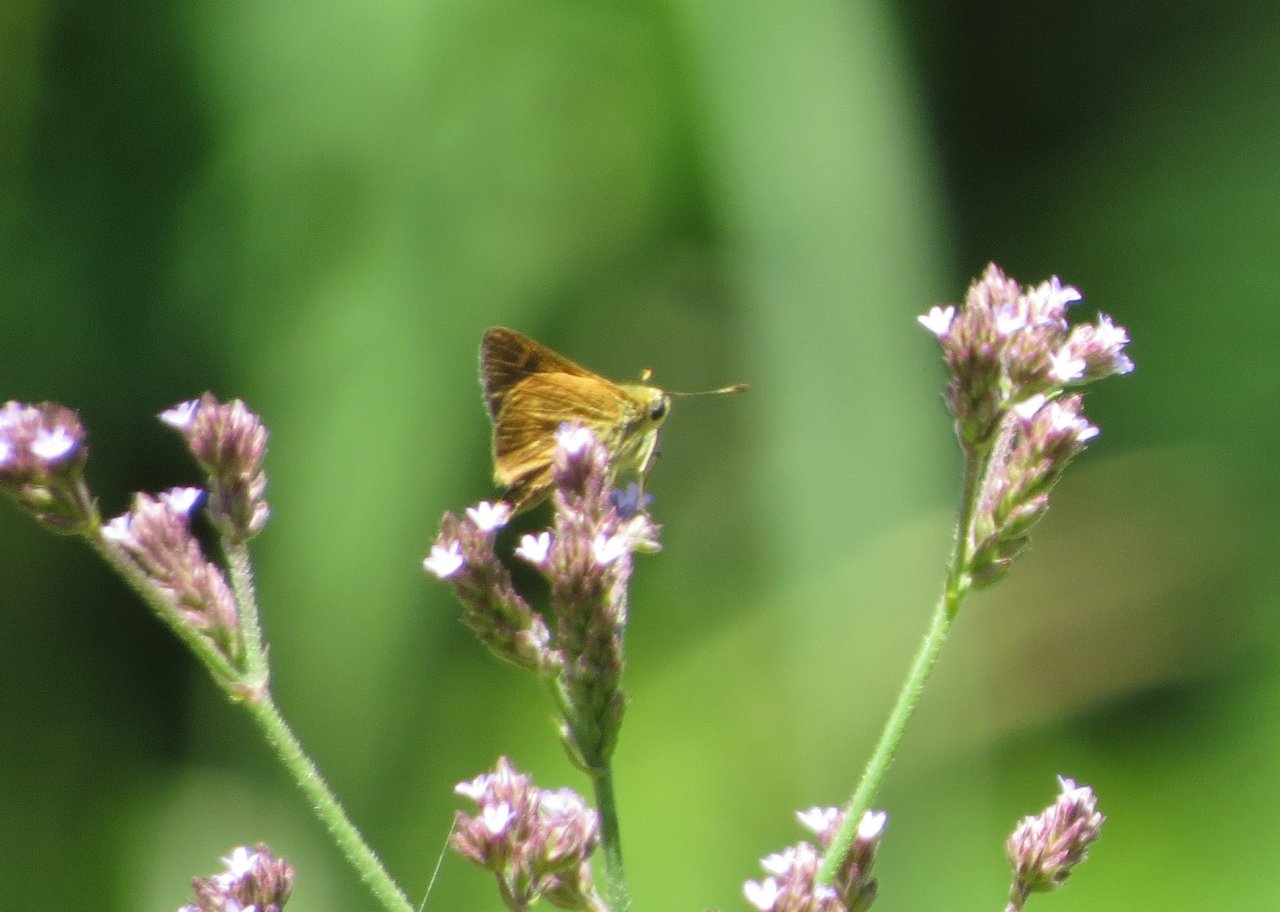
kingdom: Animalia
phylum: Arthropoda
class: Insecta
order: Lepidoptera
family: Hesperiidae
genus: Wallengrenia
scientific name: Wallengrenia otho
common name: Southern Broken-Dash
